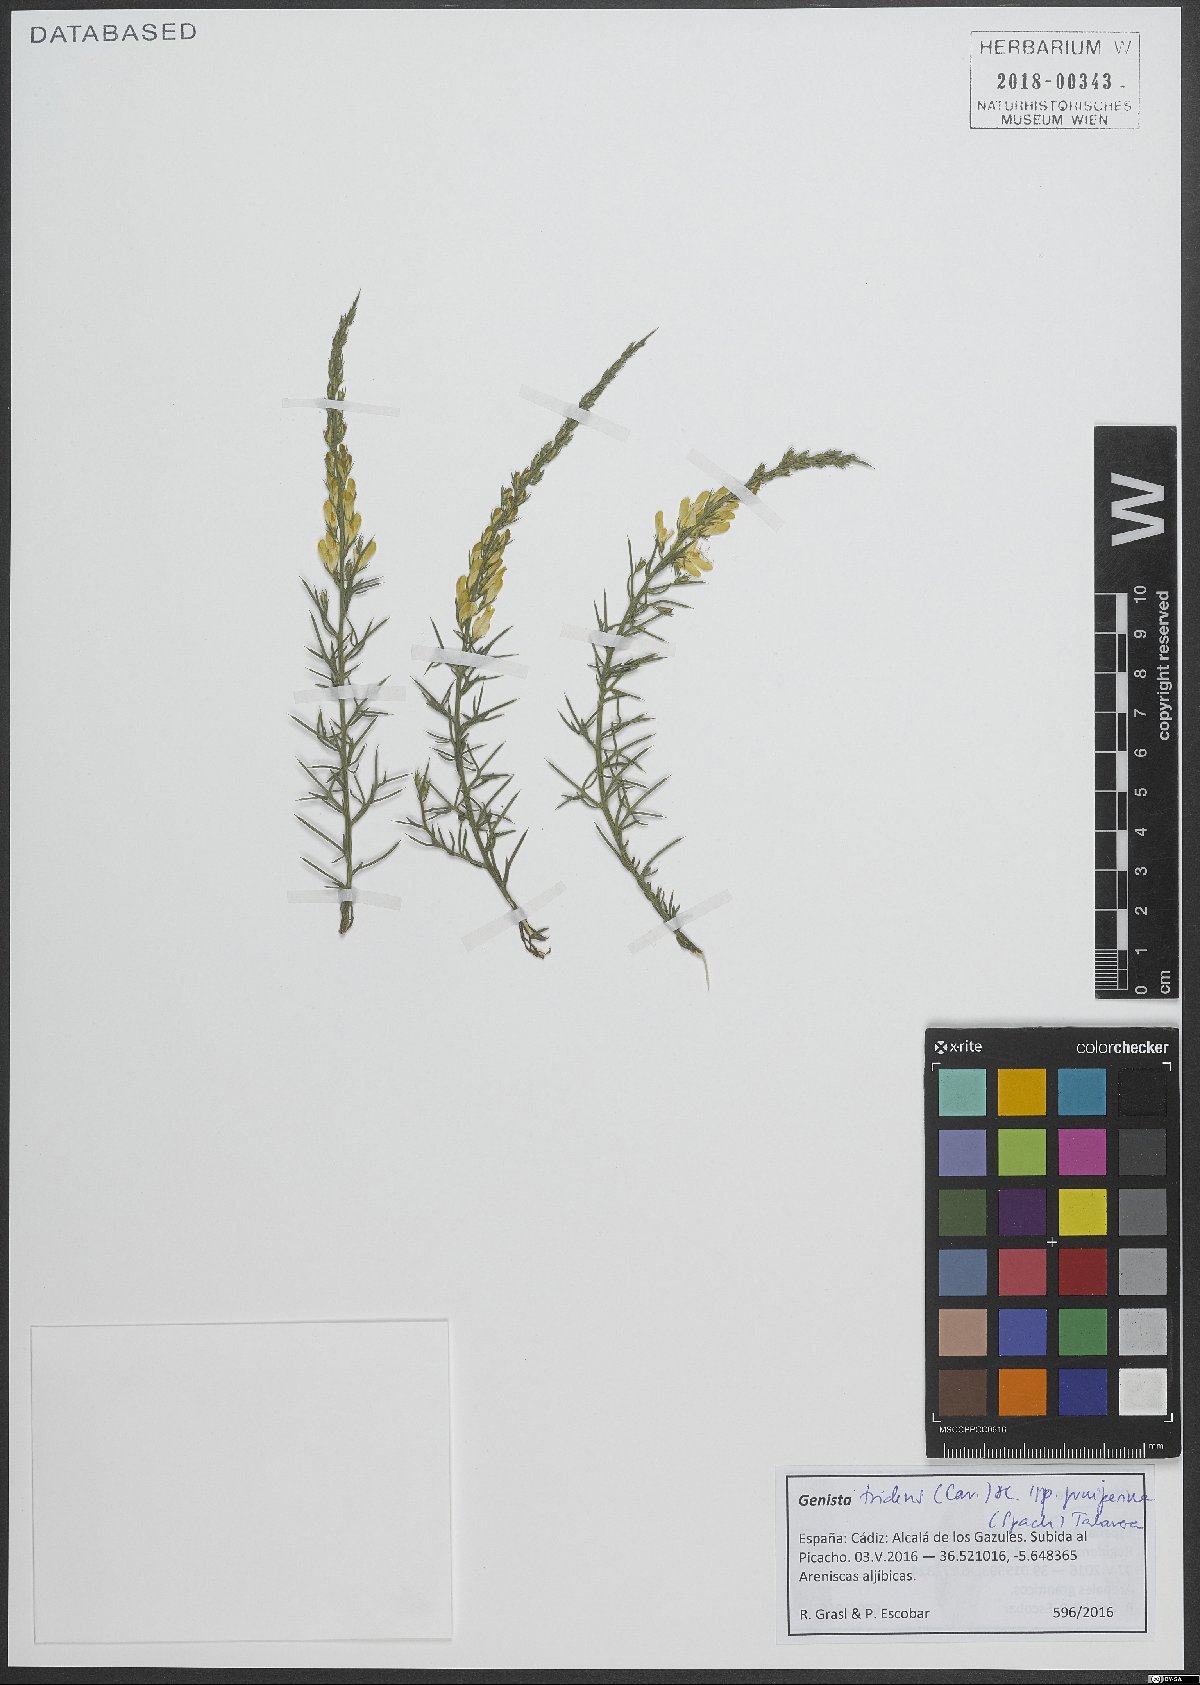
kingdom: Plantae
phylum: Tracheophyta
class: Magnoliopsida
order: Fabales
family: Fabaceae
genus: Genista
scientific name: Genista tridens
